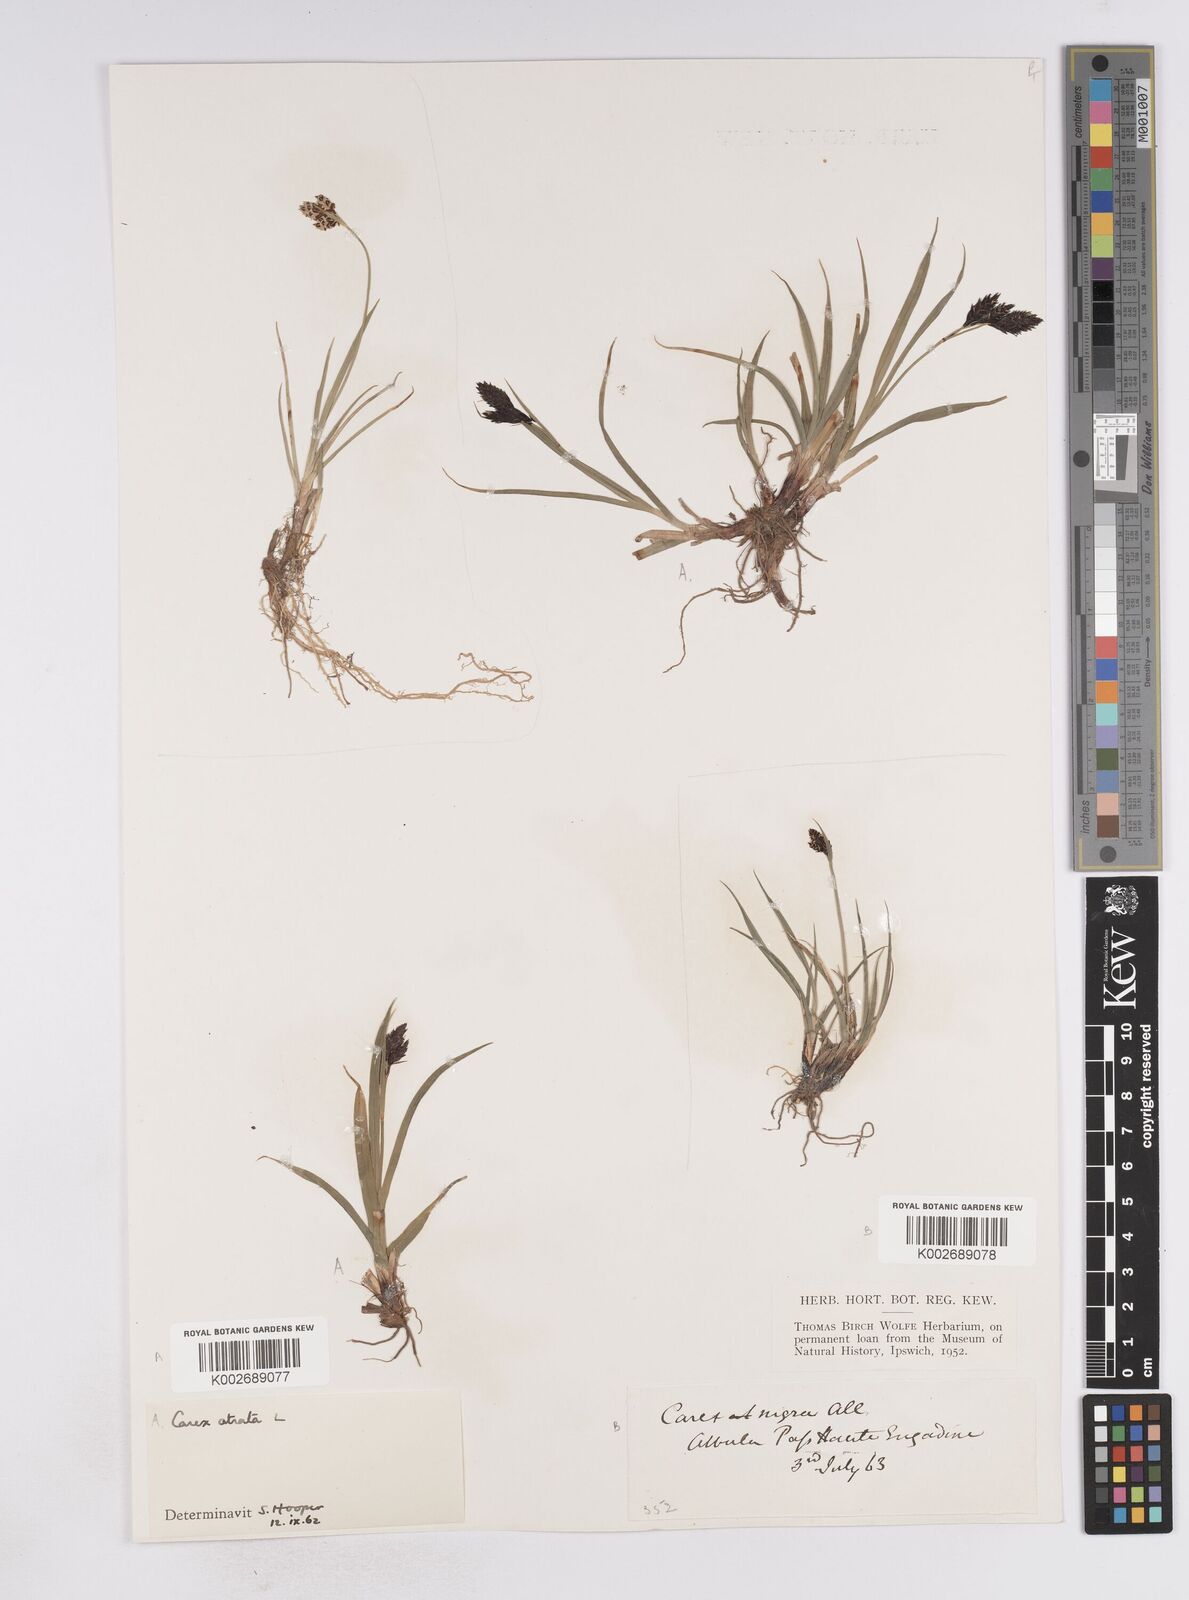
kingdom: Plantae
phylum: Tracheophyta
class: Liliopsida
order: Poales
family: Cyperaceae
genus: Carex
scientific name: Carex atrata
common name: Black alpine sedge
